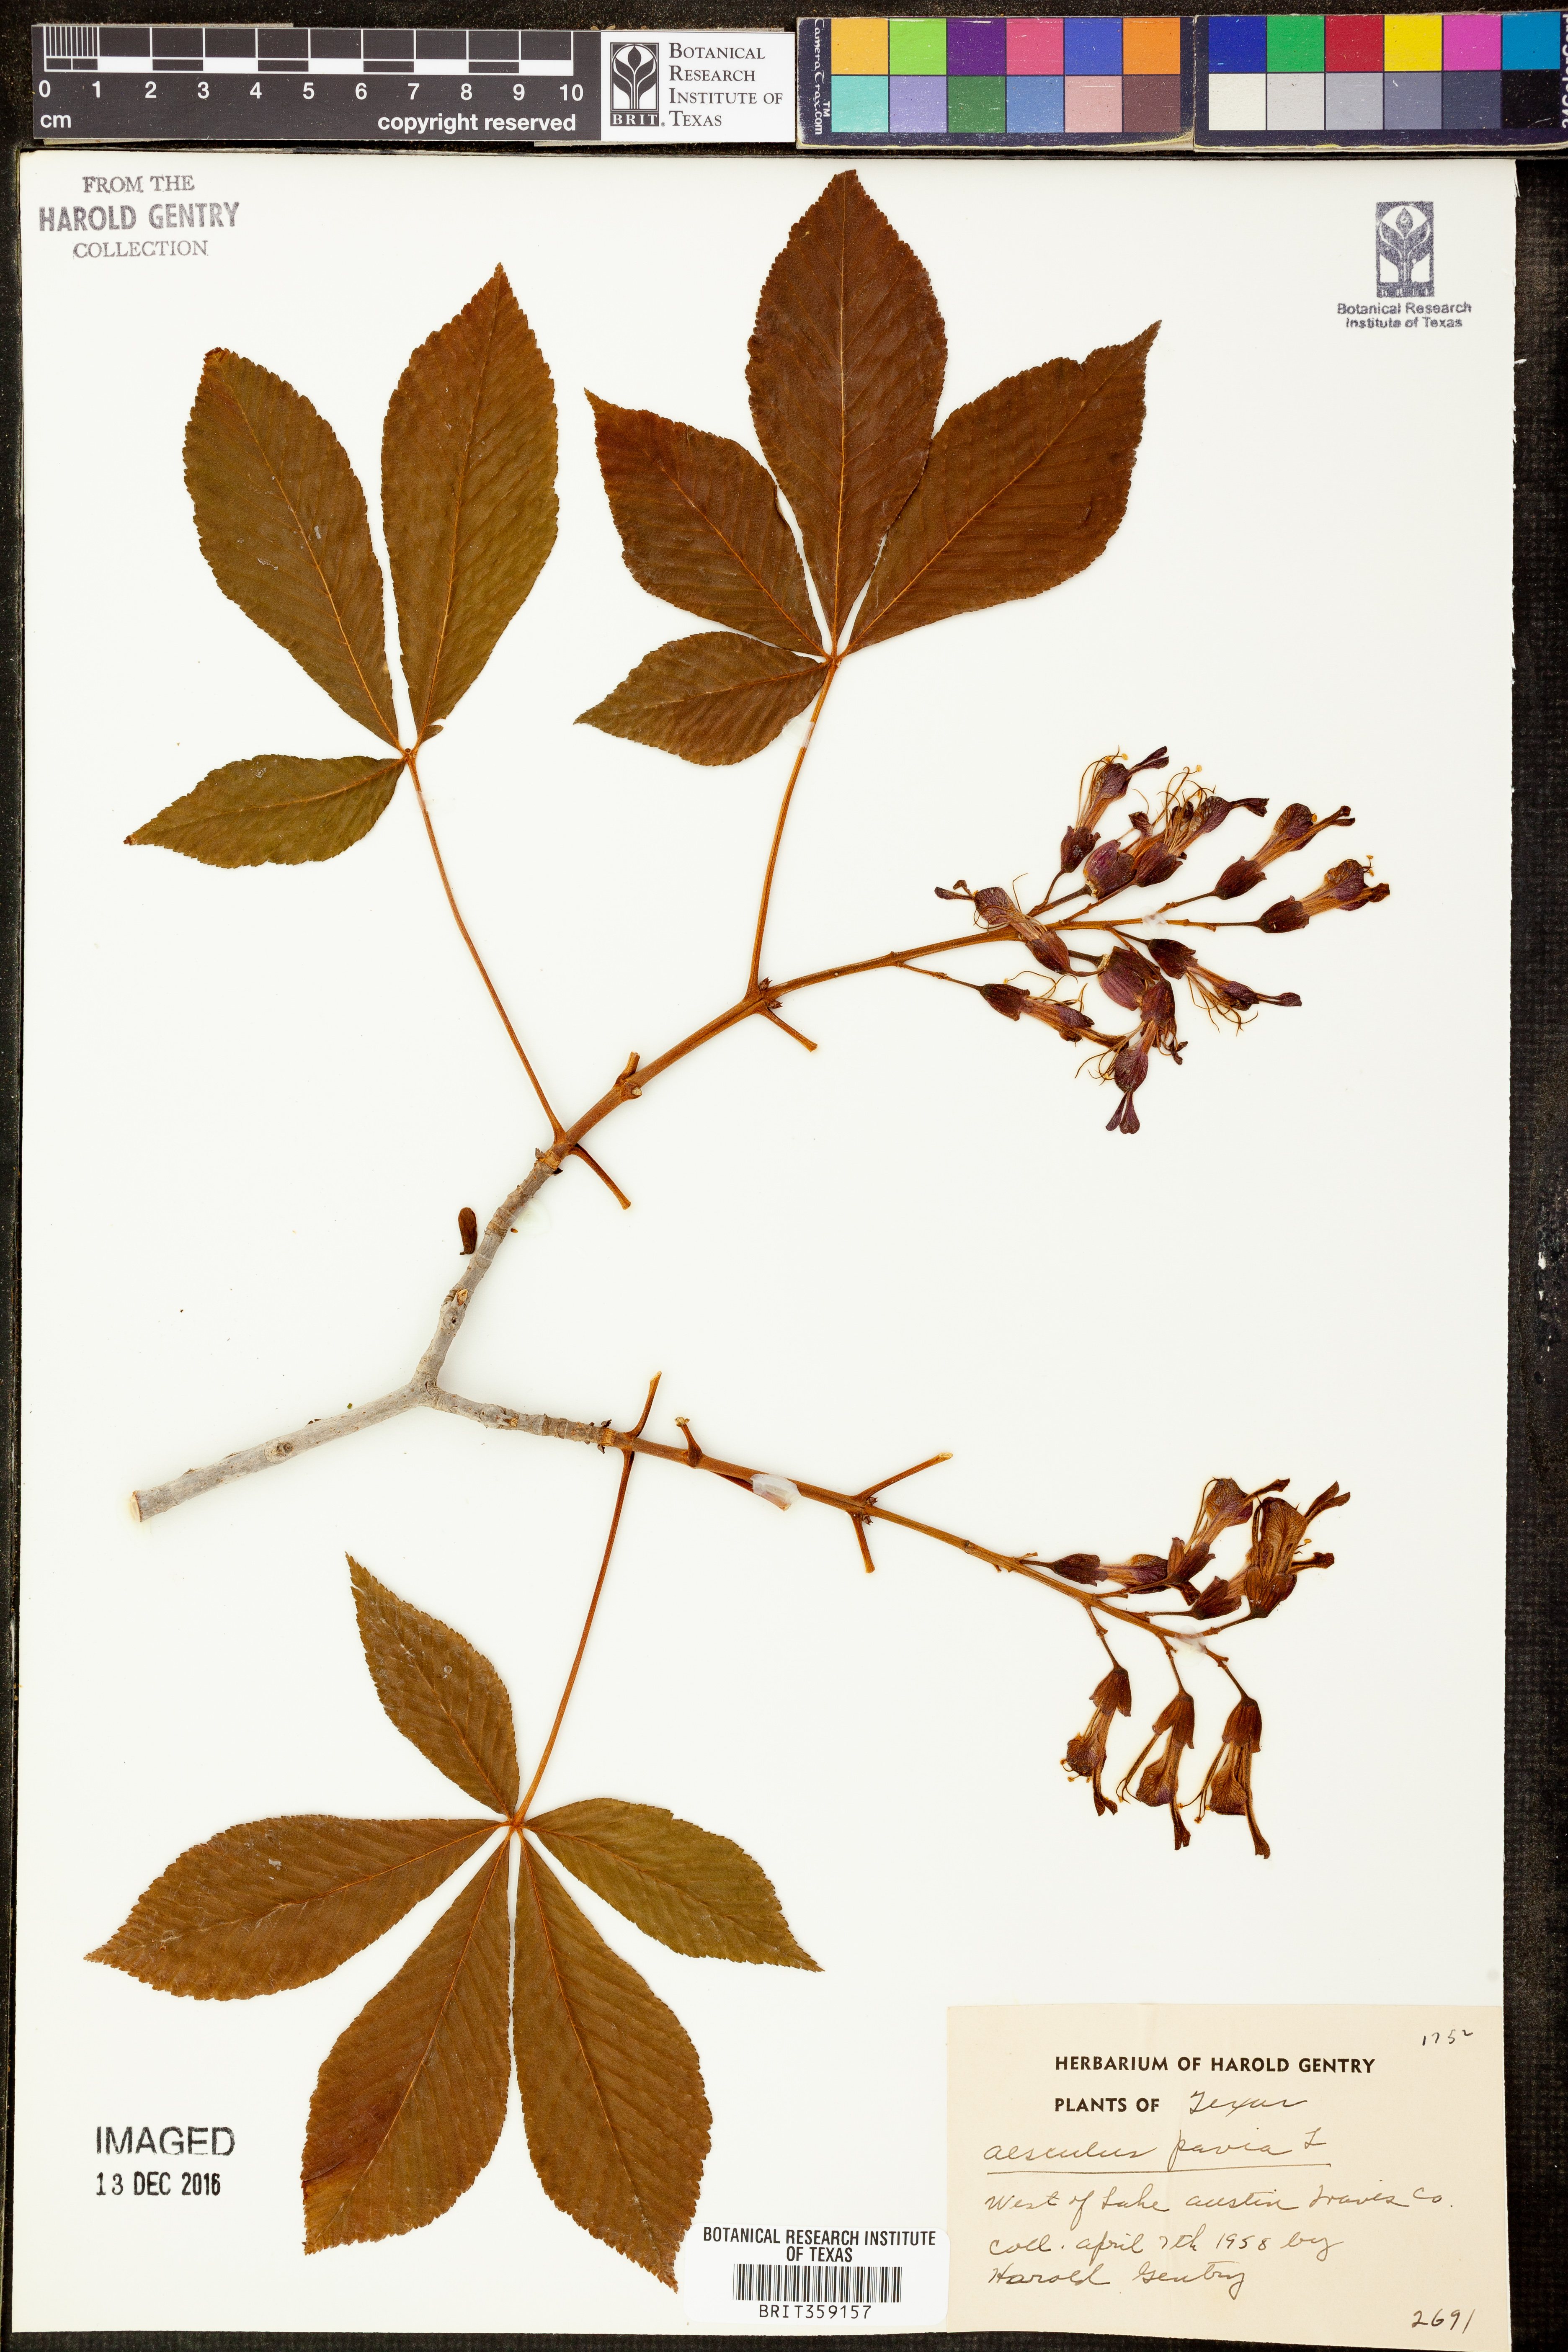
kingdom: Plantae
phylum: Tracheophyta
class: Magnoliopsida
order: Sapindales
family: Sapindaceae
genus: Aesculus
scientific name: Aesculus pavia
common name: Red buckeye
